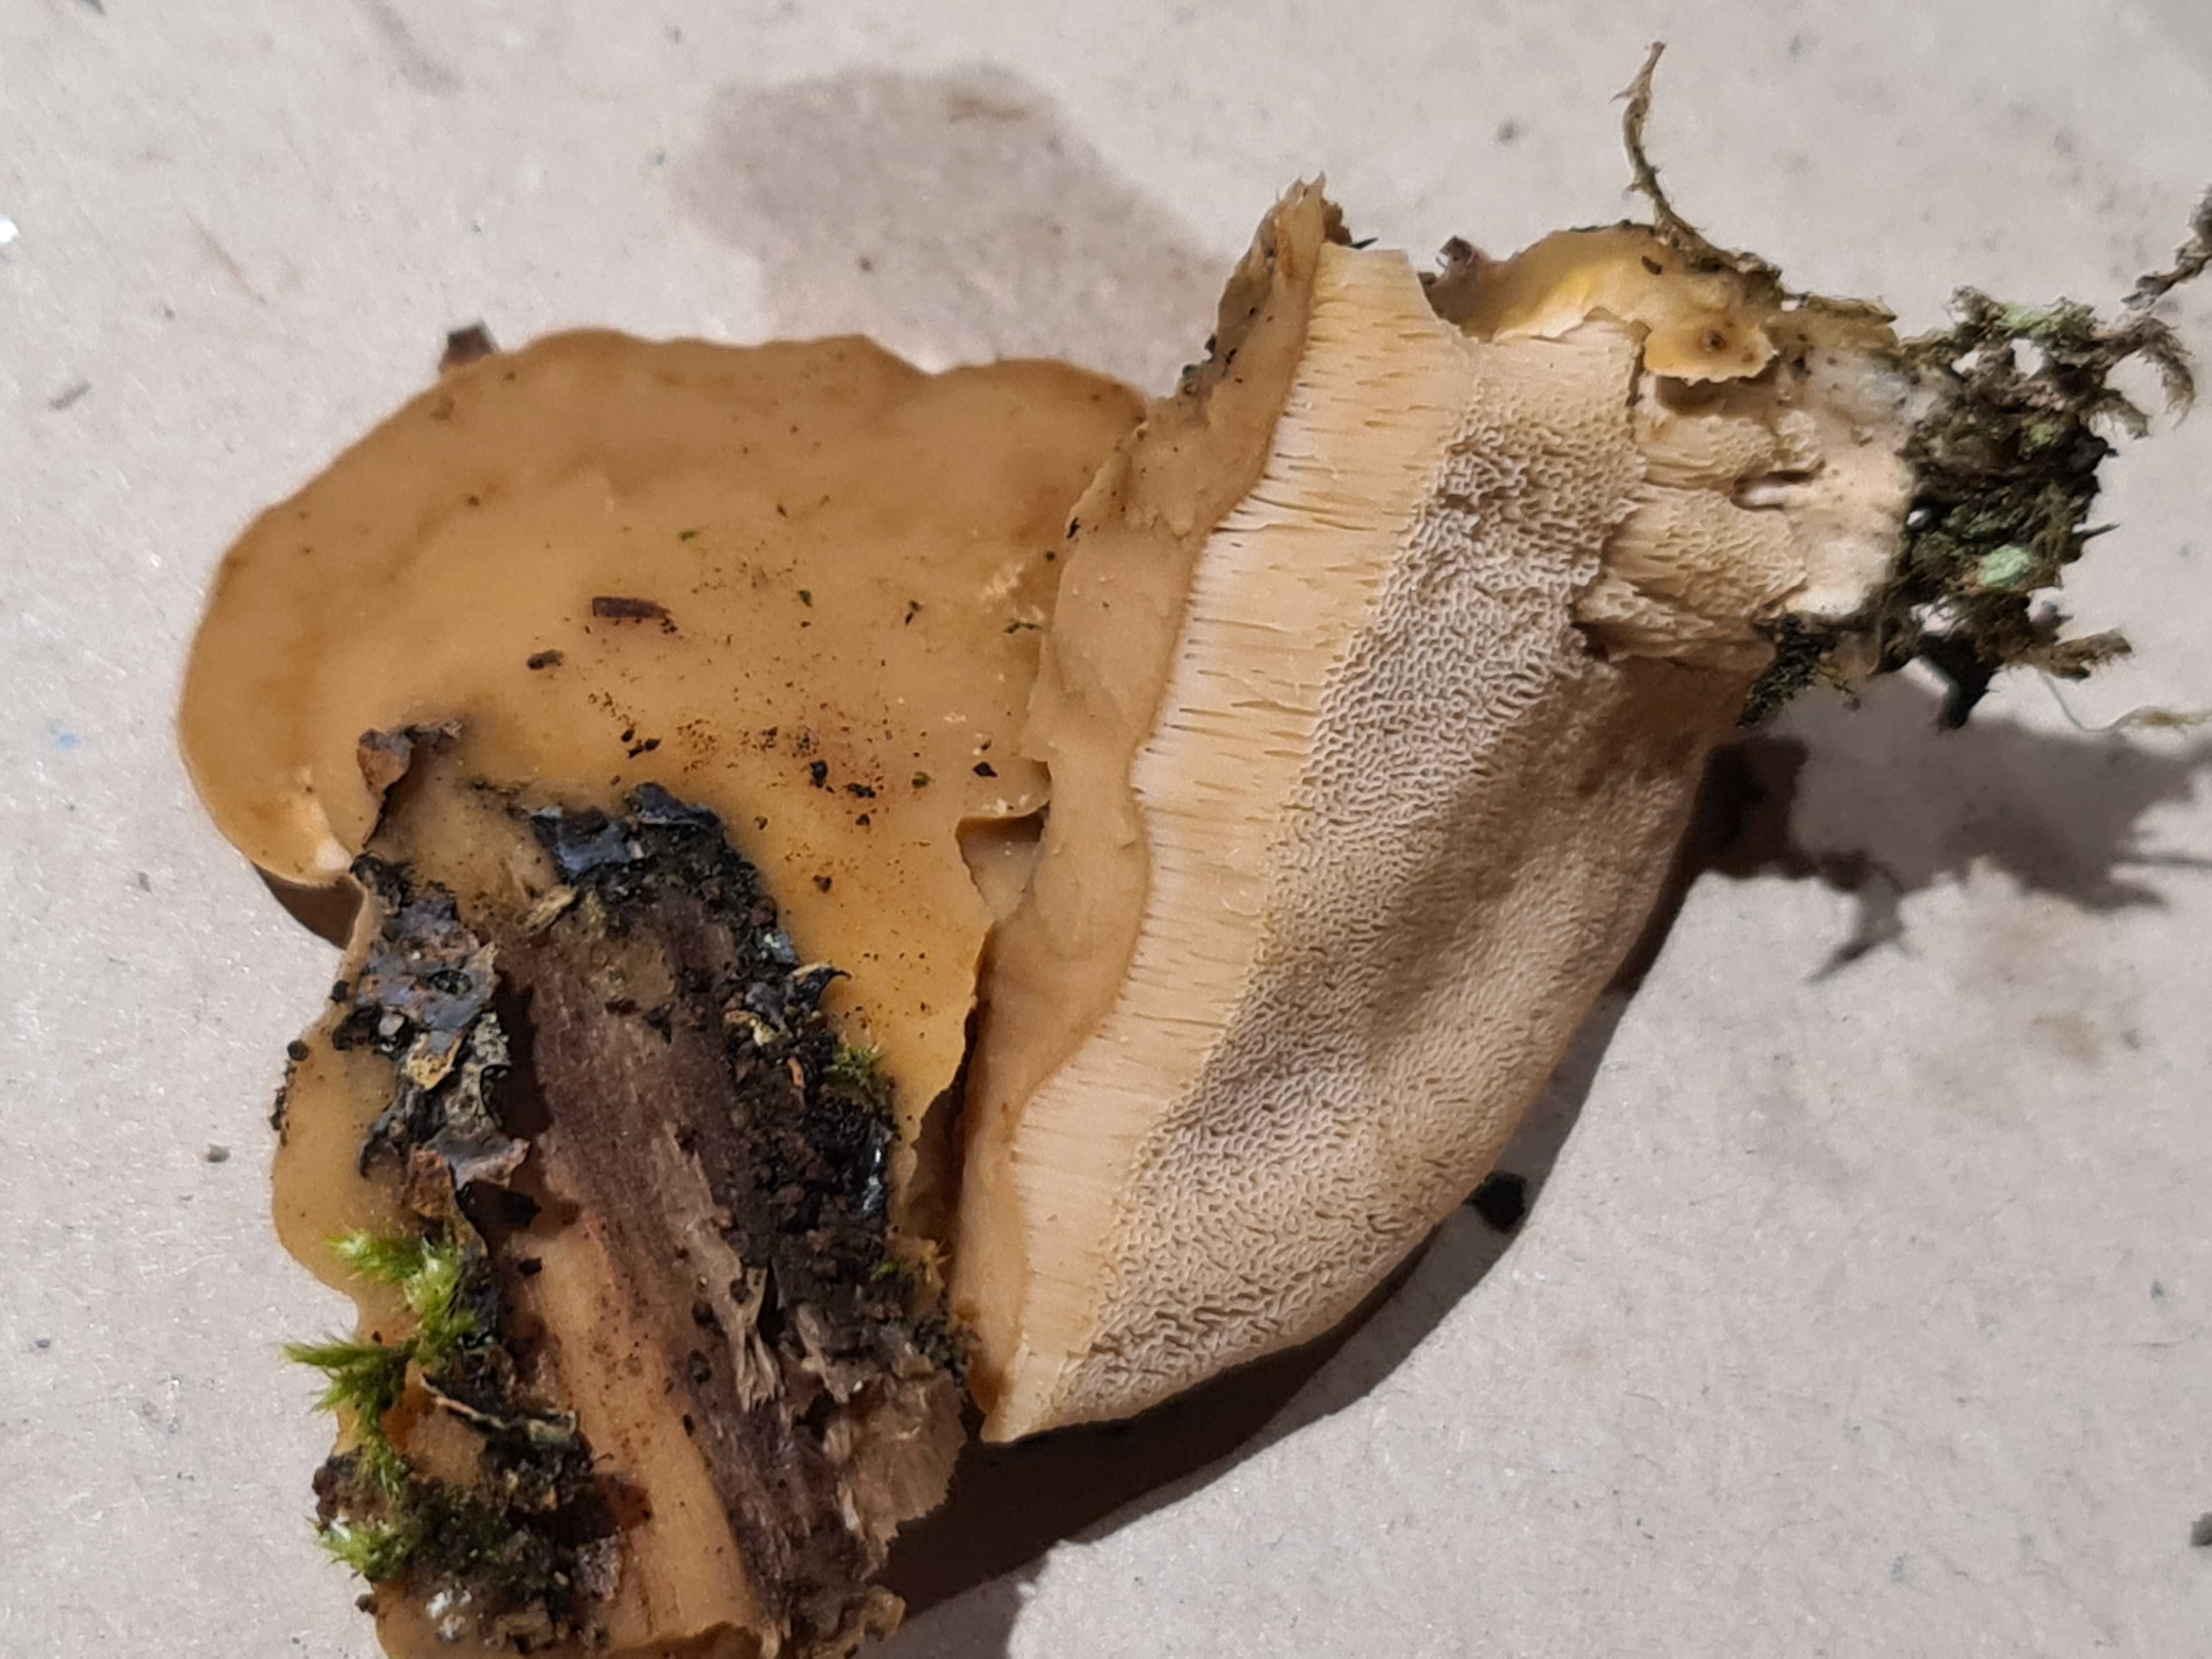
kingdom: Fungi
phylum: Basidiomycota
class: Agaricomycetes
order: Polyporales
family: Phanerochaetaceae
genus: Bjerkandera
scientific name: Bjerkandera fumosa
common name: grågul sodporesvamp
